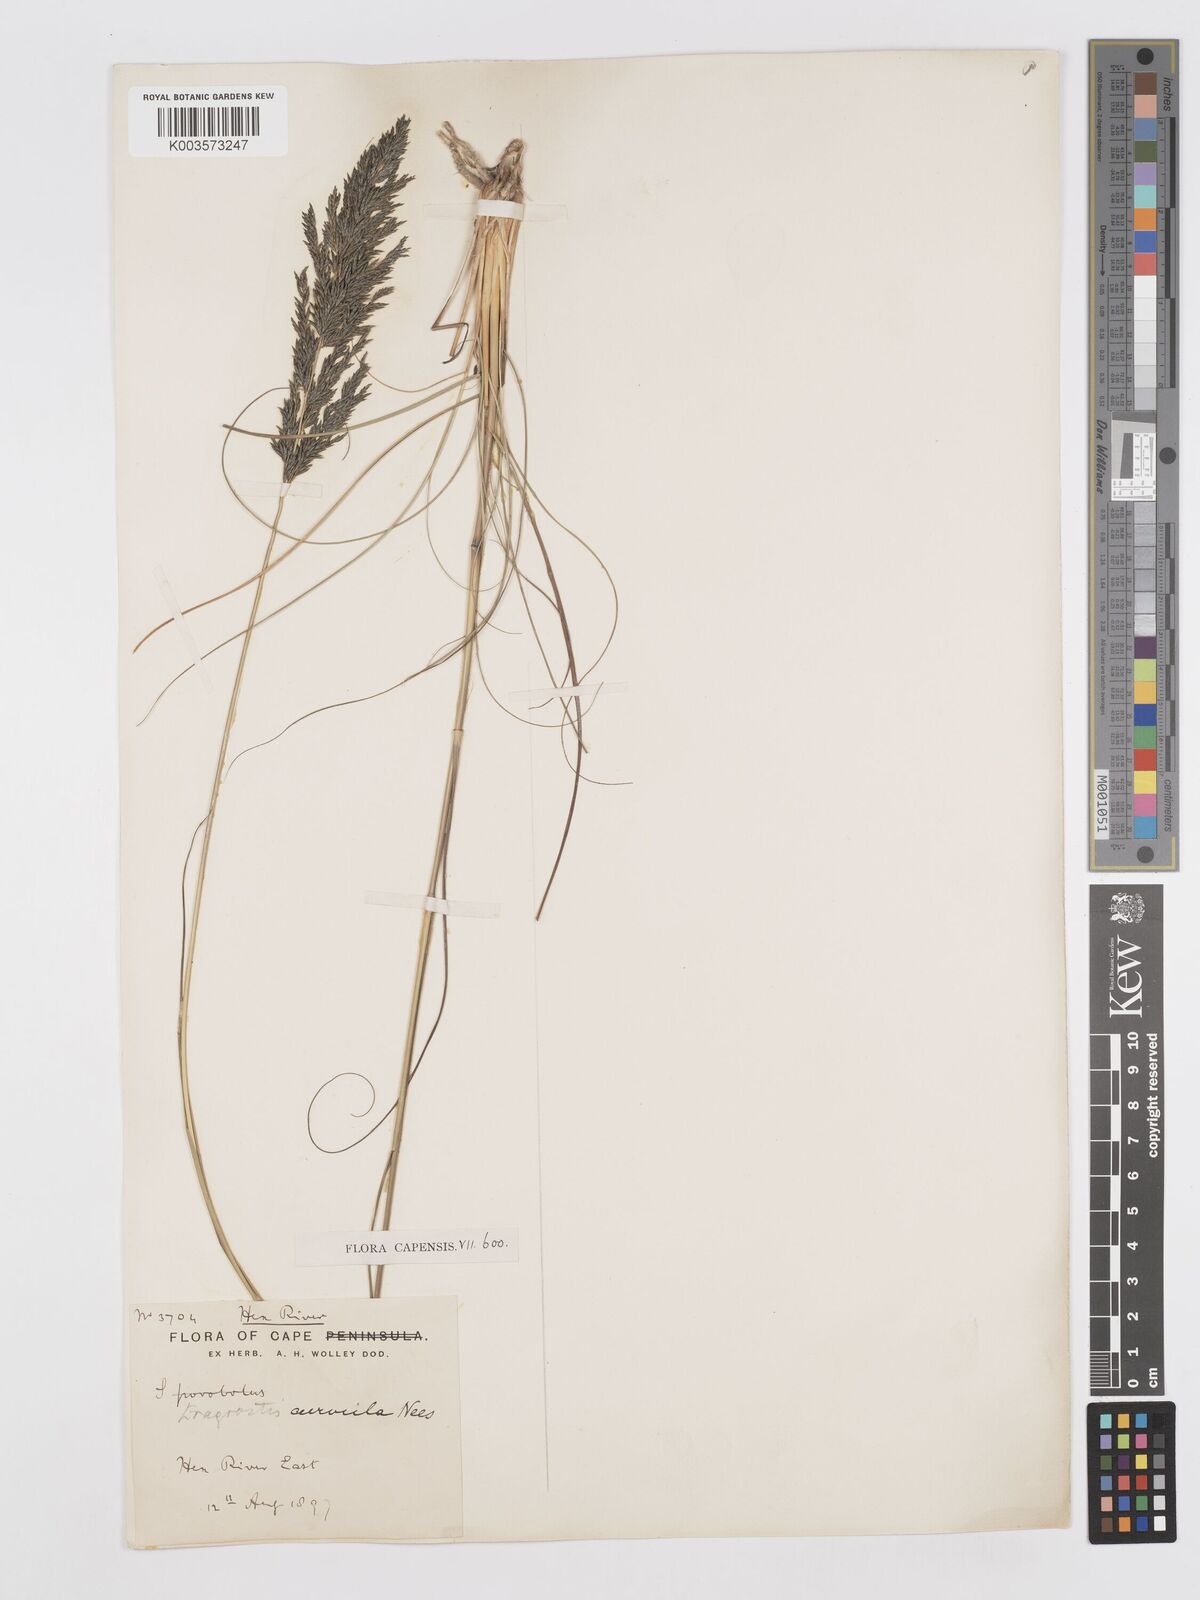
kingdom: Plantae
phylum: Tracheophyta
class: Liliopsida
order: Poales
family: Poaceae
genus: Eragrostis
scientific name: Eragrostis curvula
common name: African love-grass
